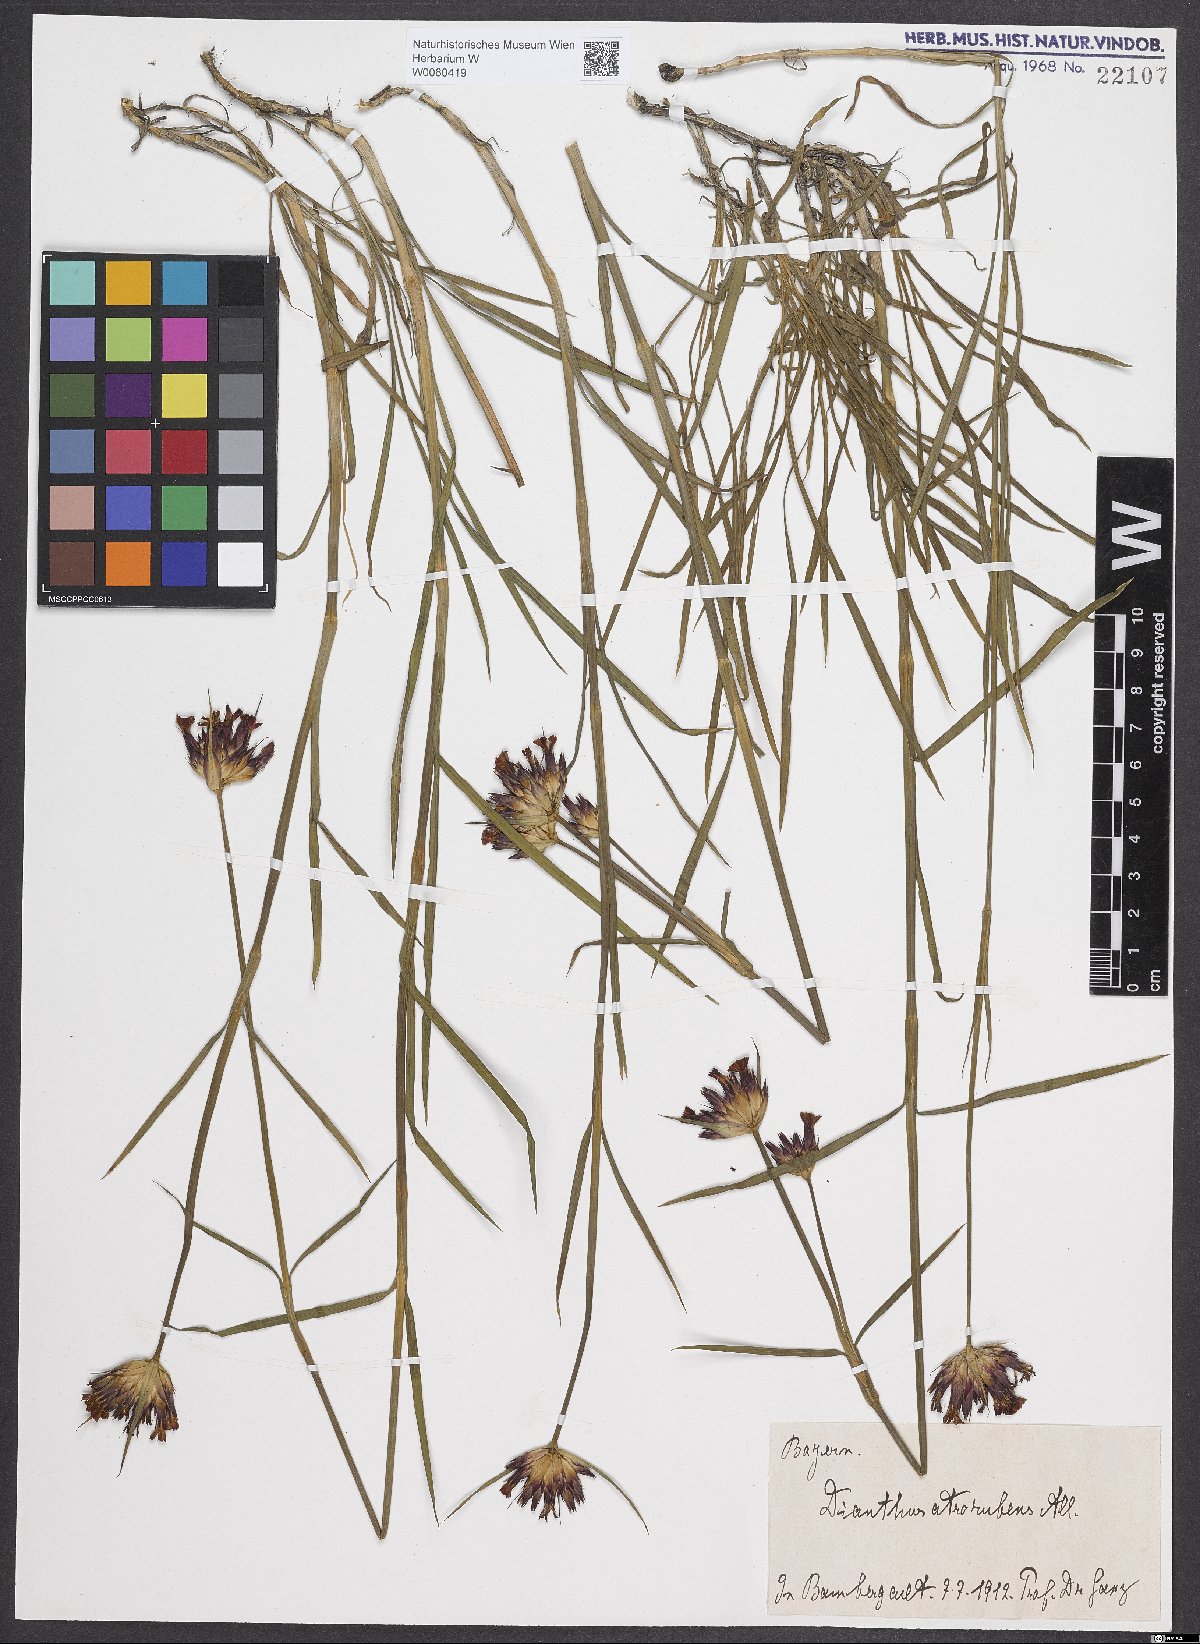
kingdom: Plantae
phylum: Tracheophyta
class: Magnoliopsida
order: Caryophyllales
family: Caryophyllaceae
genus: Dianthus
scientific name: Dianthus carthusianorum
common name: Carthusian pink
